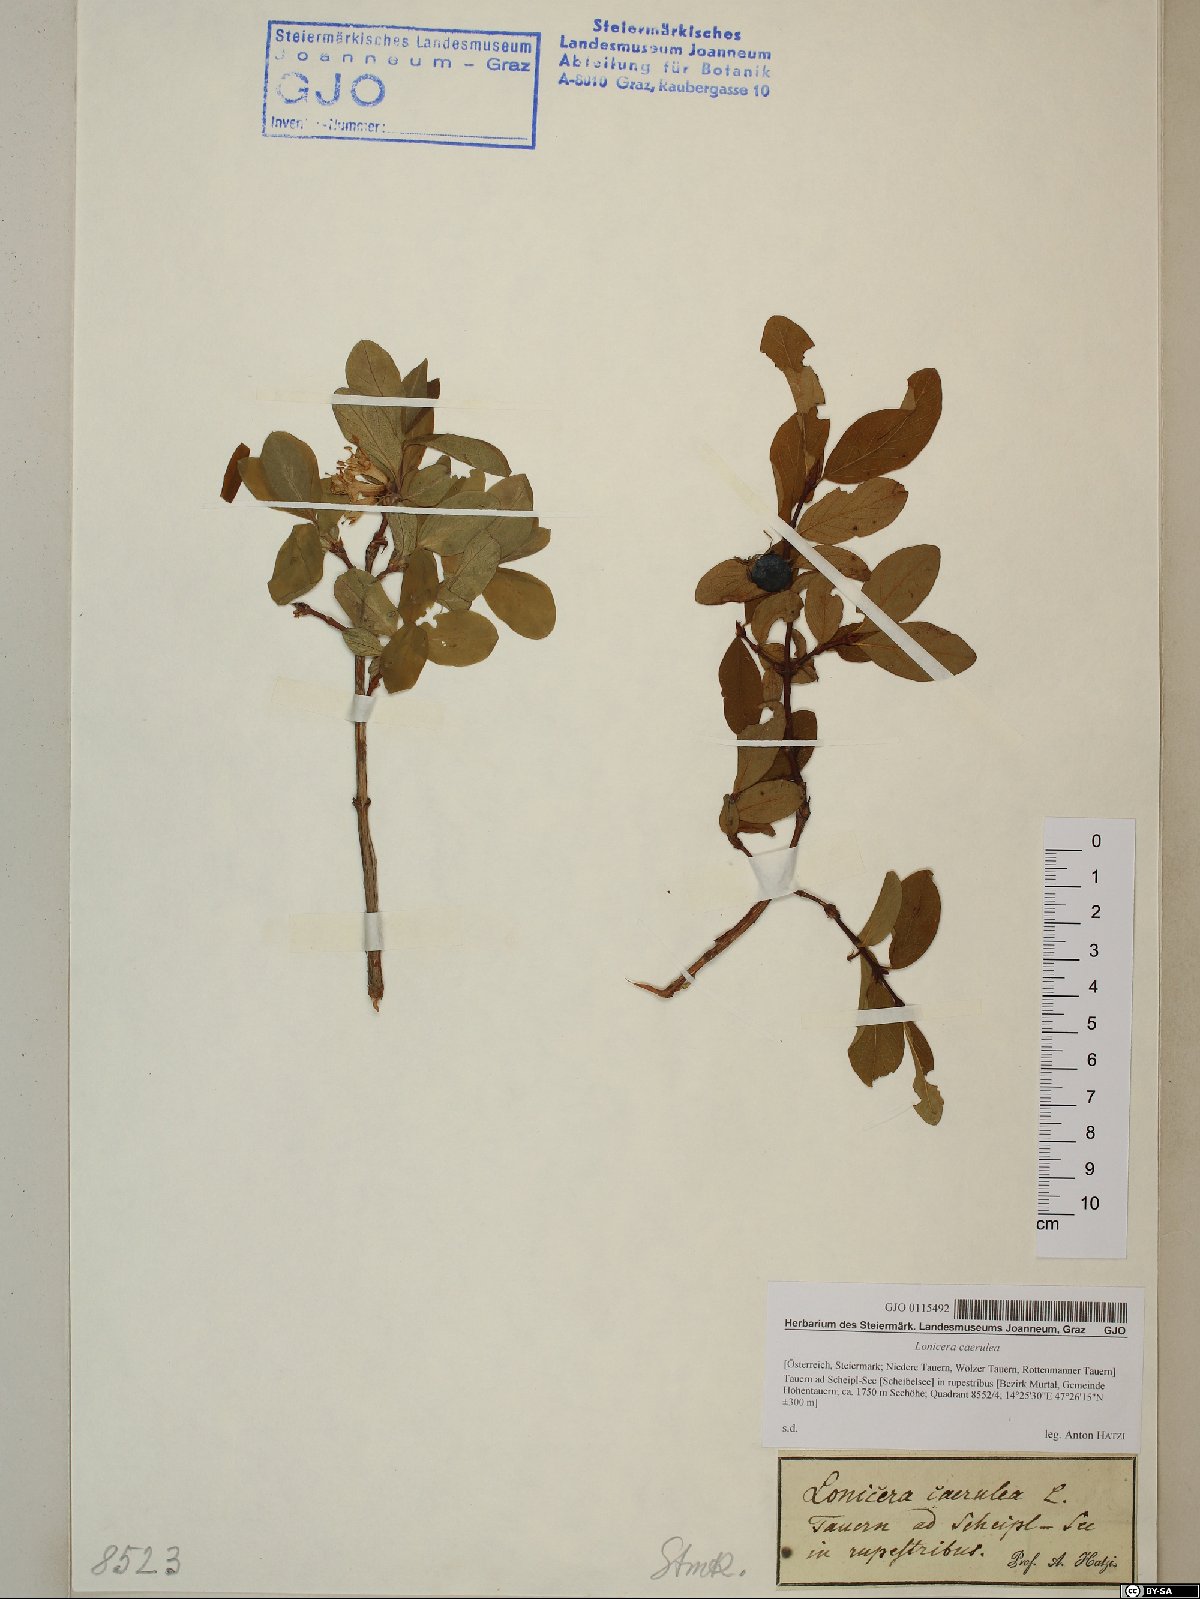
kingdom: Plantae
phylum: Tracheophyta
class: Magnoliopsida
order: Dipsacales
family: Caprifoliaceae
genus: Lonicera
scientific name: Lonicera caerulea
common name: Blue honeysuckle
